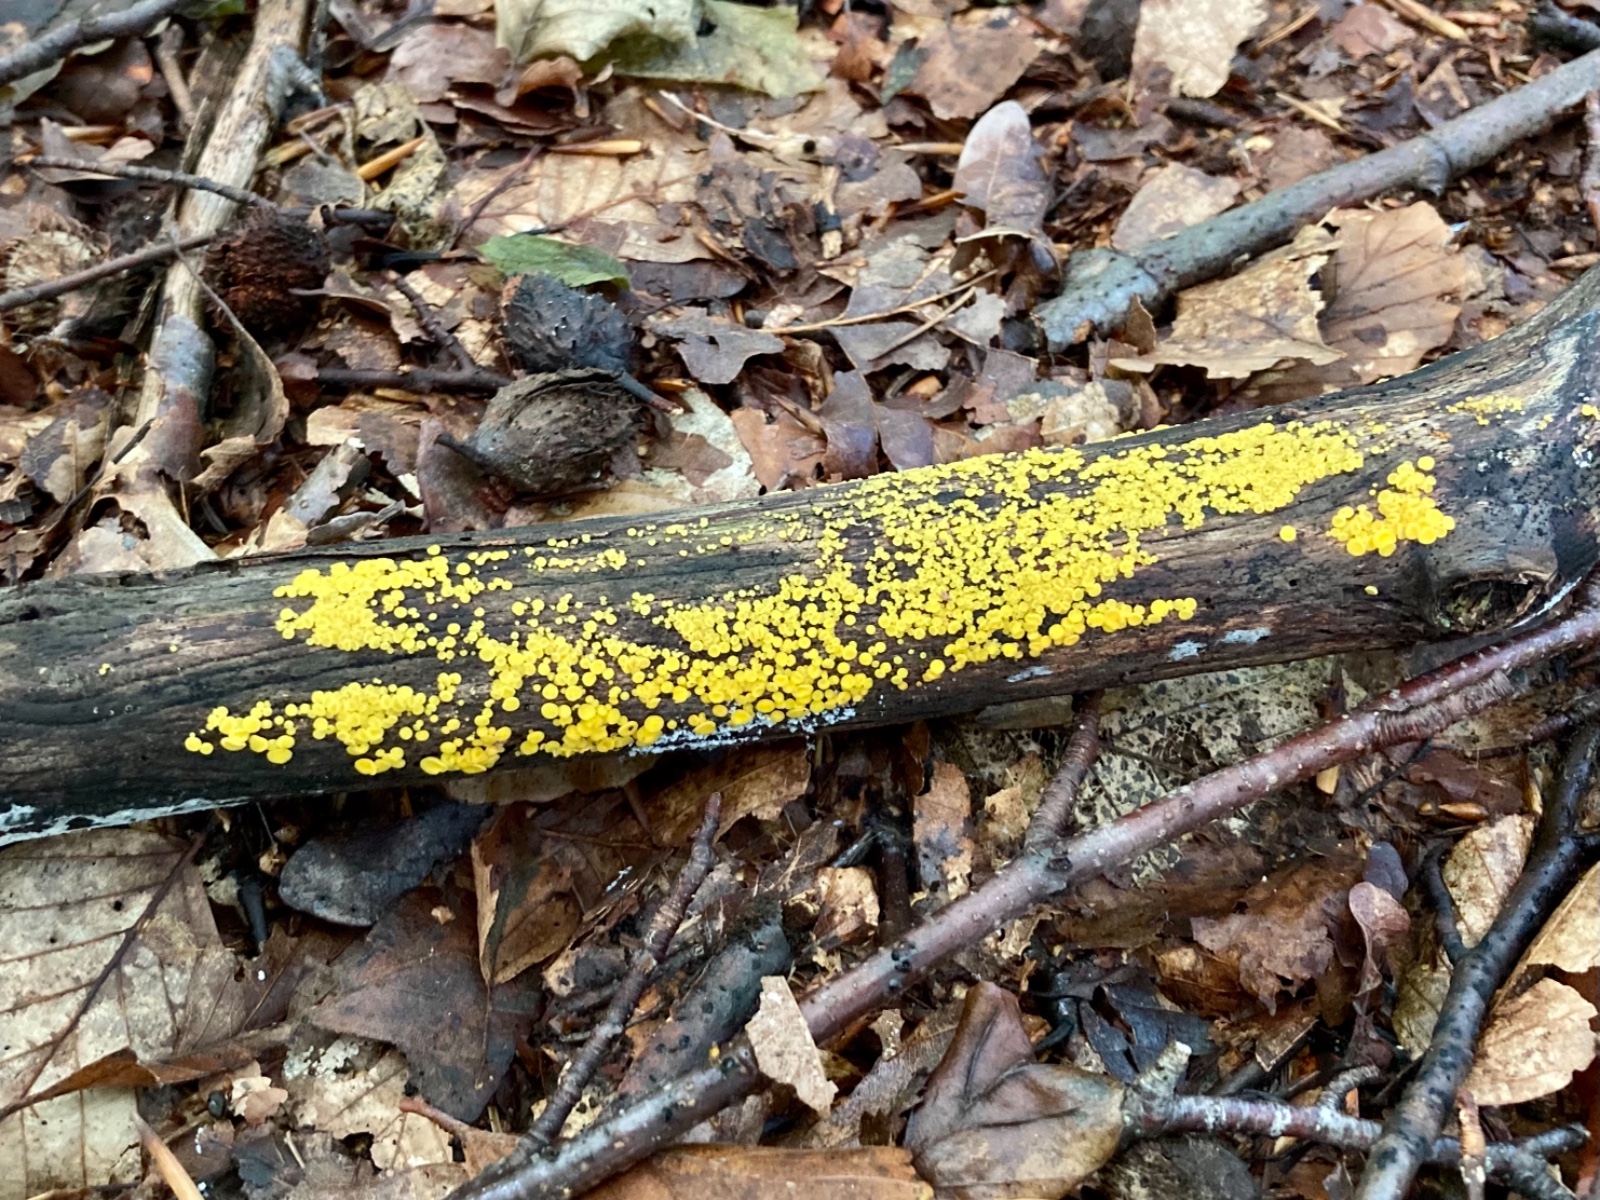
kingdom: Fungi
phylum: Ascomycota
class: Leotiomycetes
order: Helotiales
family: Pezizellaceae
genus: Calycina
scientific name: Calycina citrina
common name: almindelig gulskive
